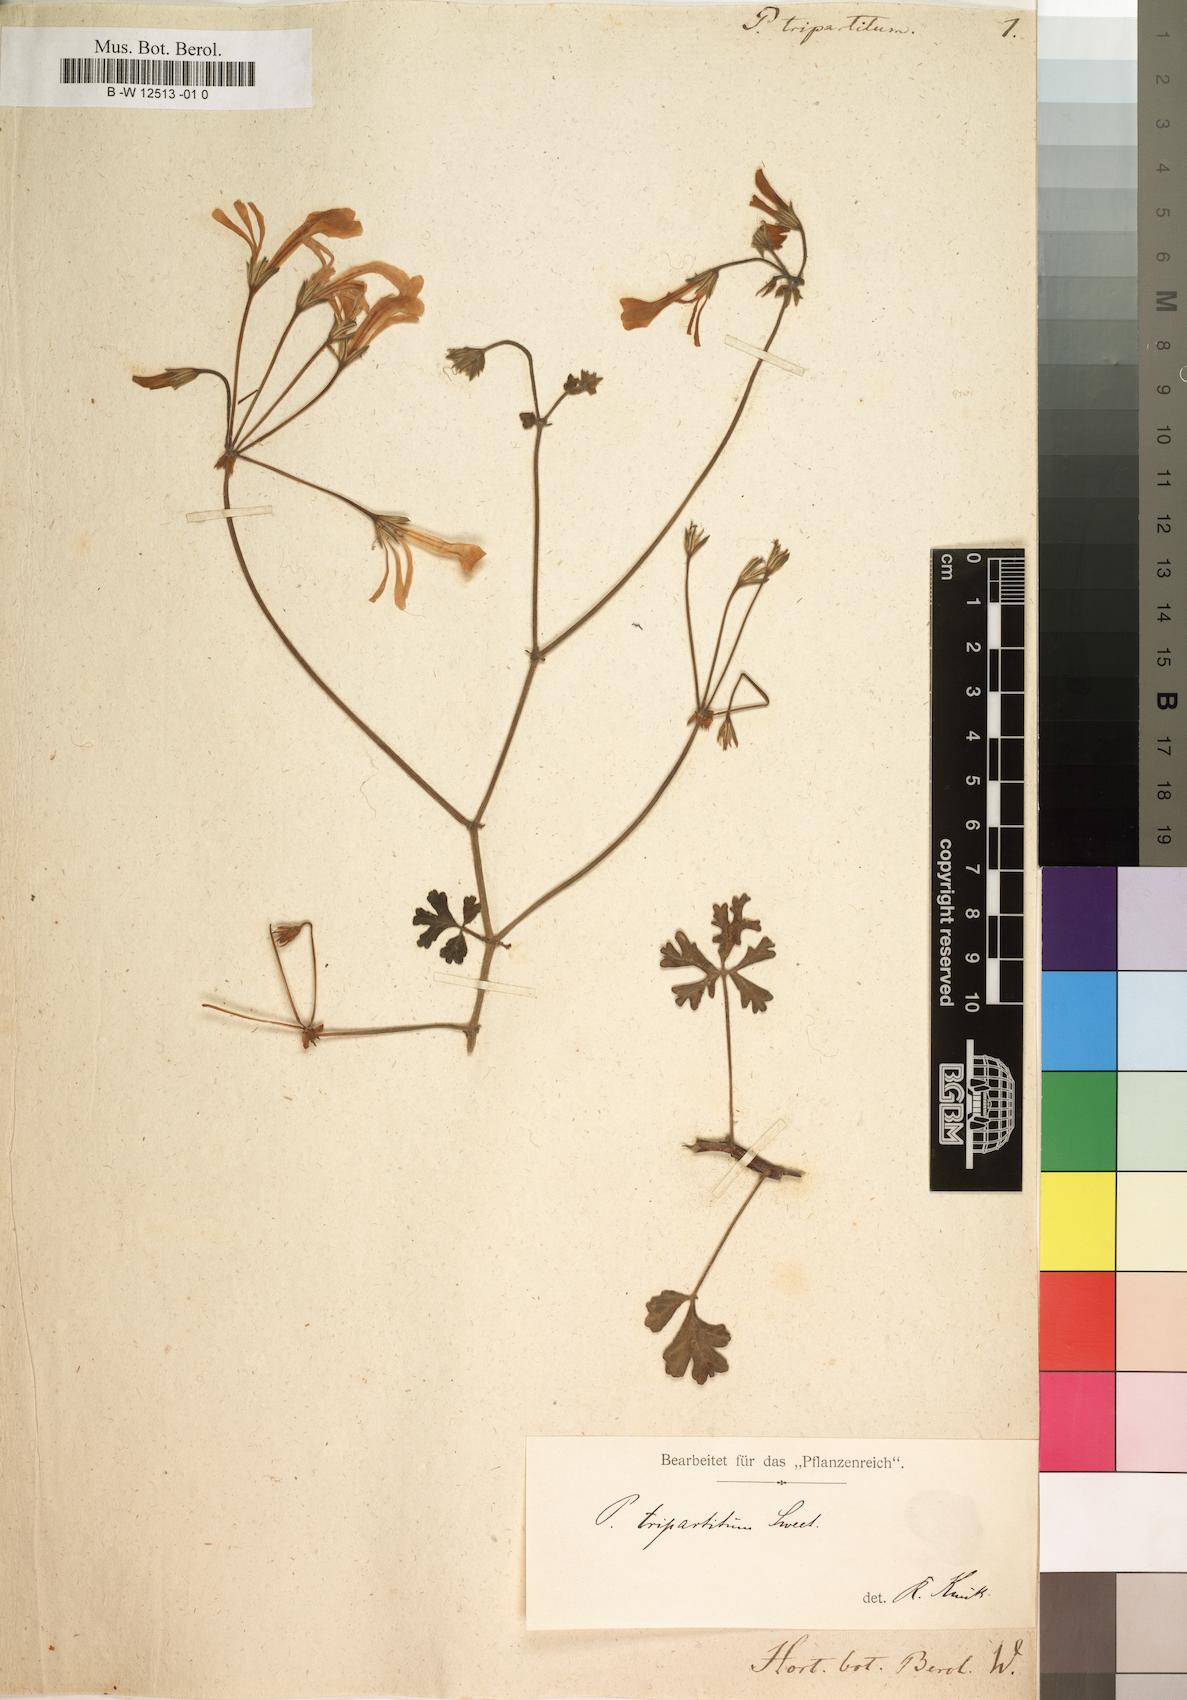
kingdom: Plantae
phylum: Tracheophyta
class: Magnoliopsida
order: Geraniales
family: Geraniaceae
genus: Pelargonium
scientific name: Pelargonium trifidum
